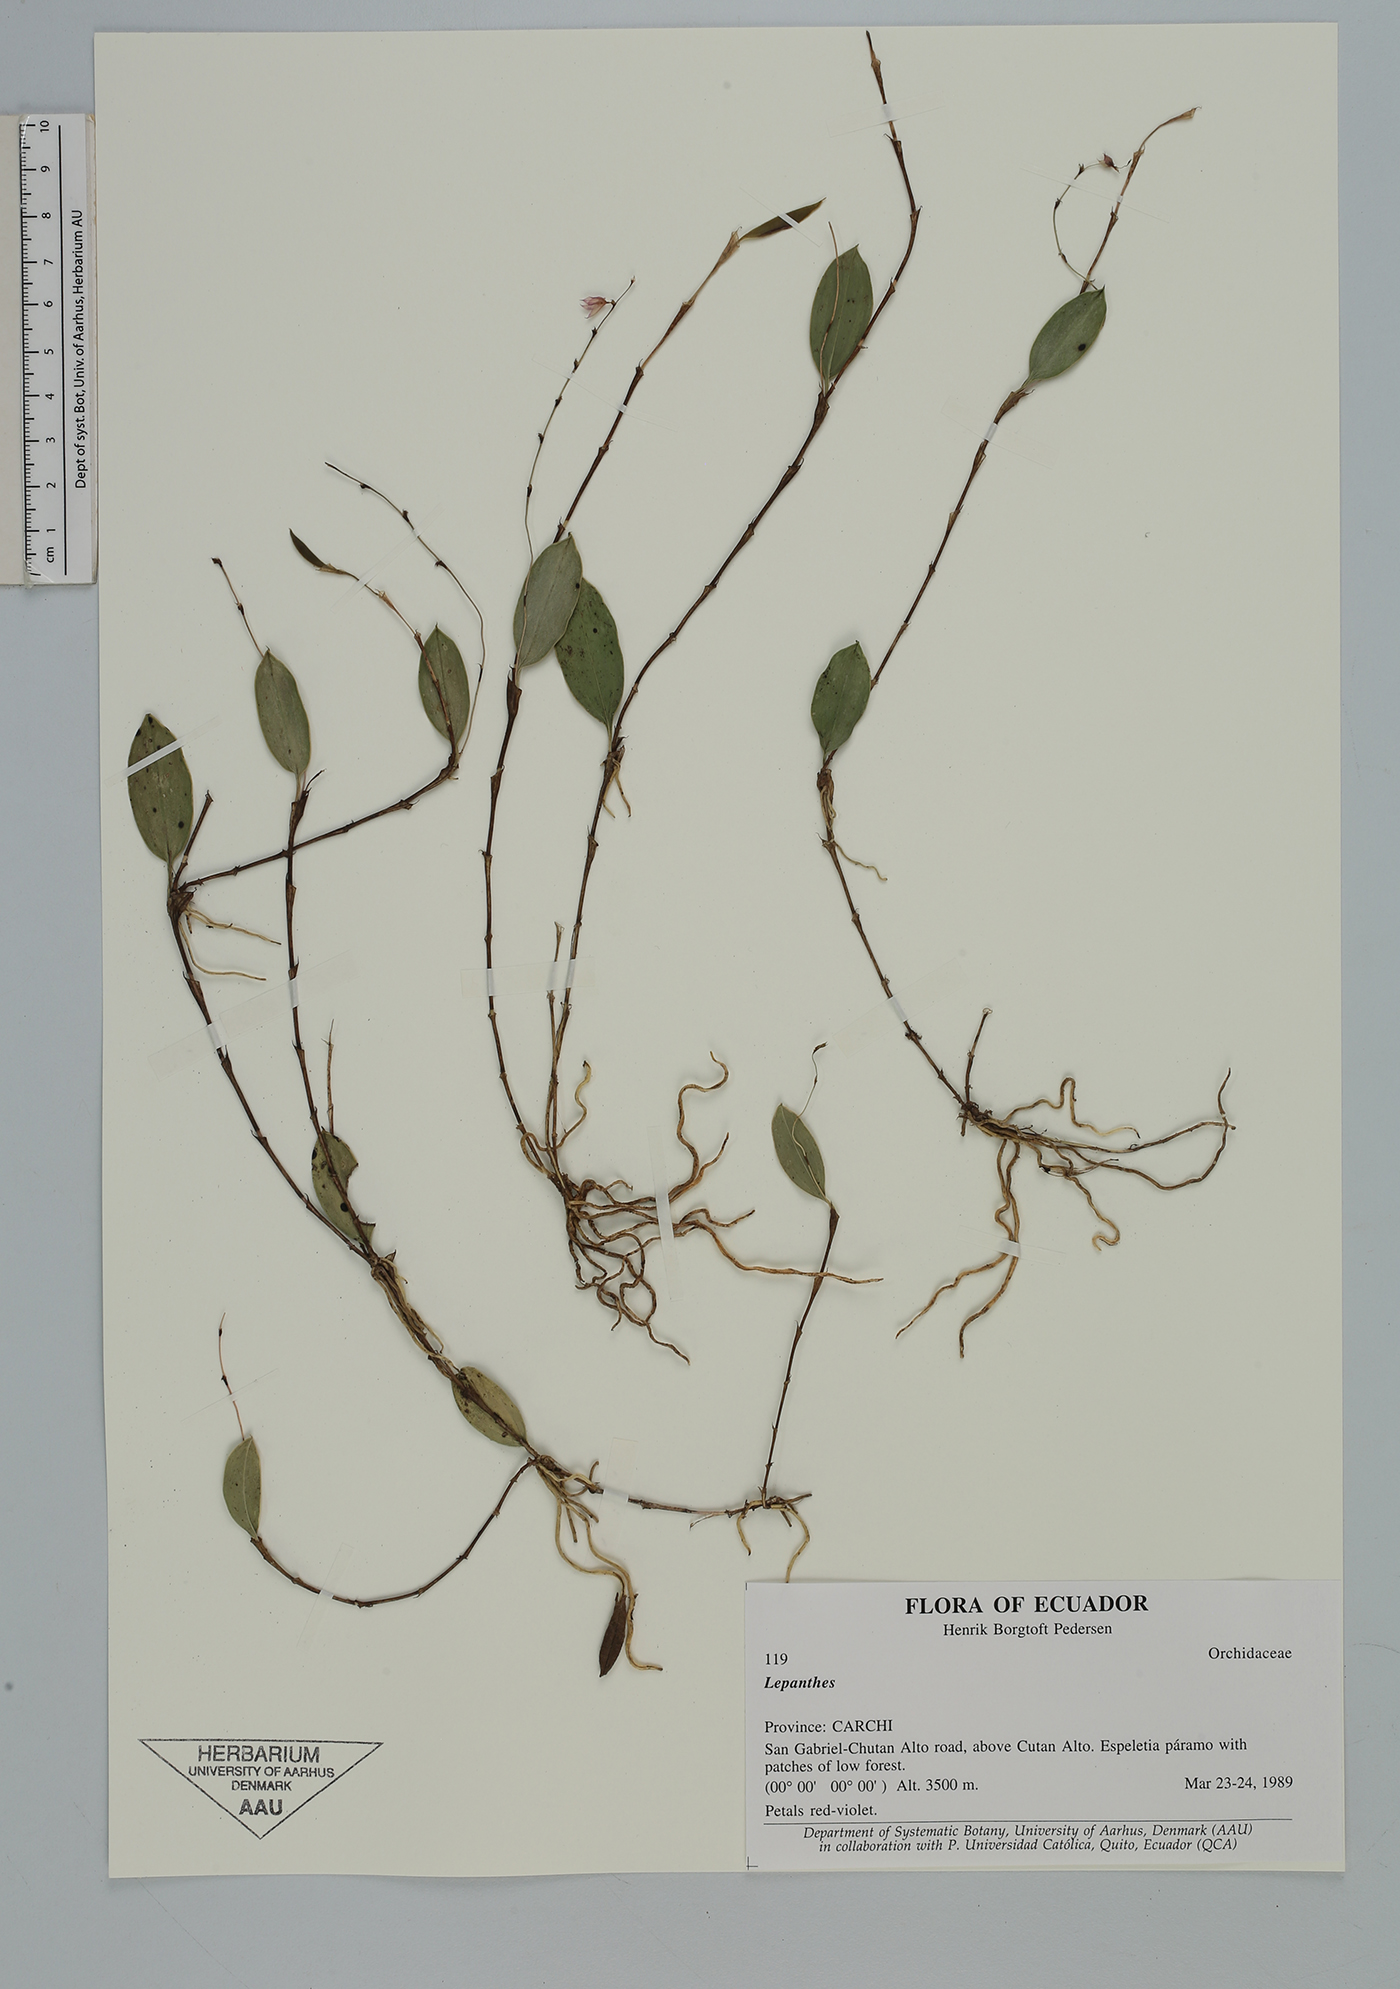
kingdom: Plantae
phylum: Tracheophyta
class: Liliopsida
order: Asparagales
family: Orchidaceae
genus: Lepanthes
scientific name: Lepanthes
